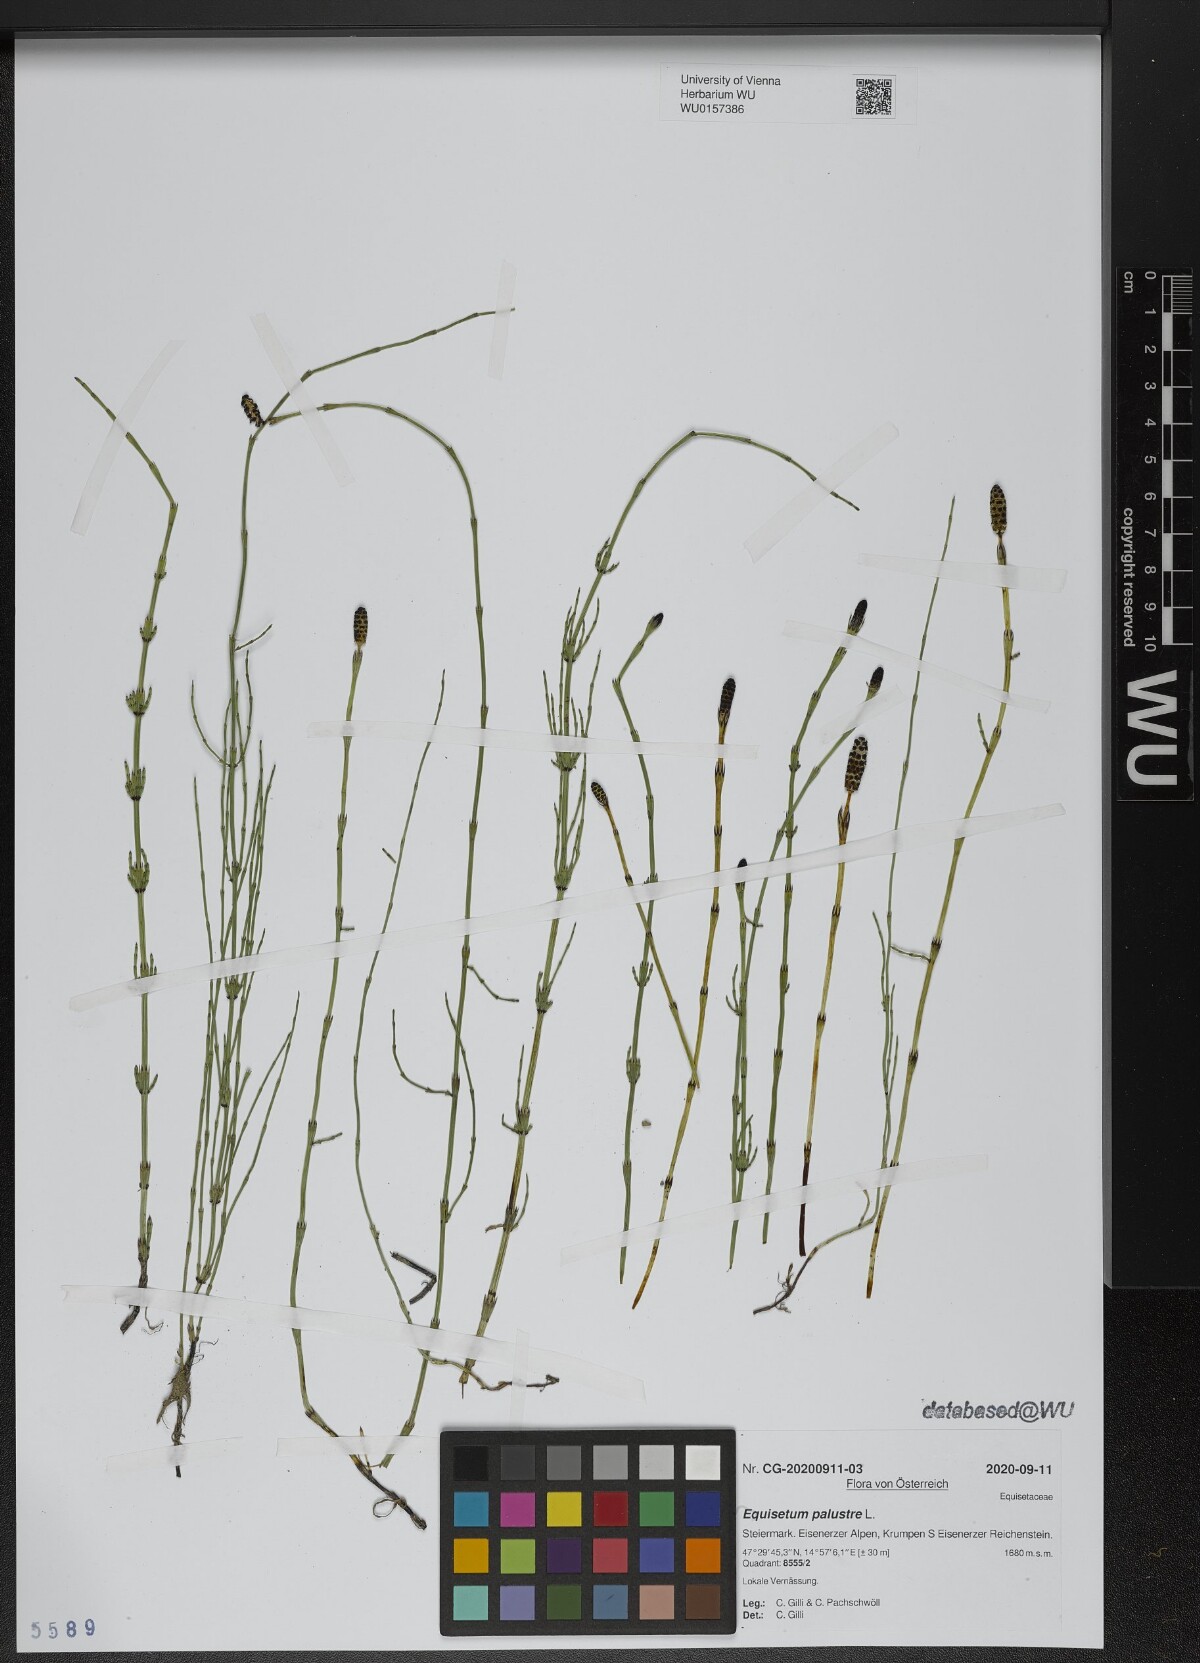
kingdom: Plantae
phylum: Tracheophyta
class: Polypodiopsida
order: Equisetales
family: Equisetaceae
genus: Equisetum
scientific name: Equisetum palustre
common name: Marsh horsetail
